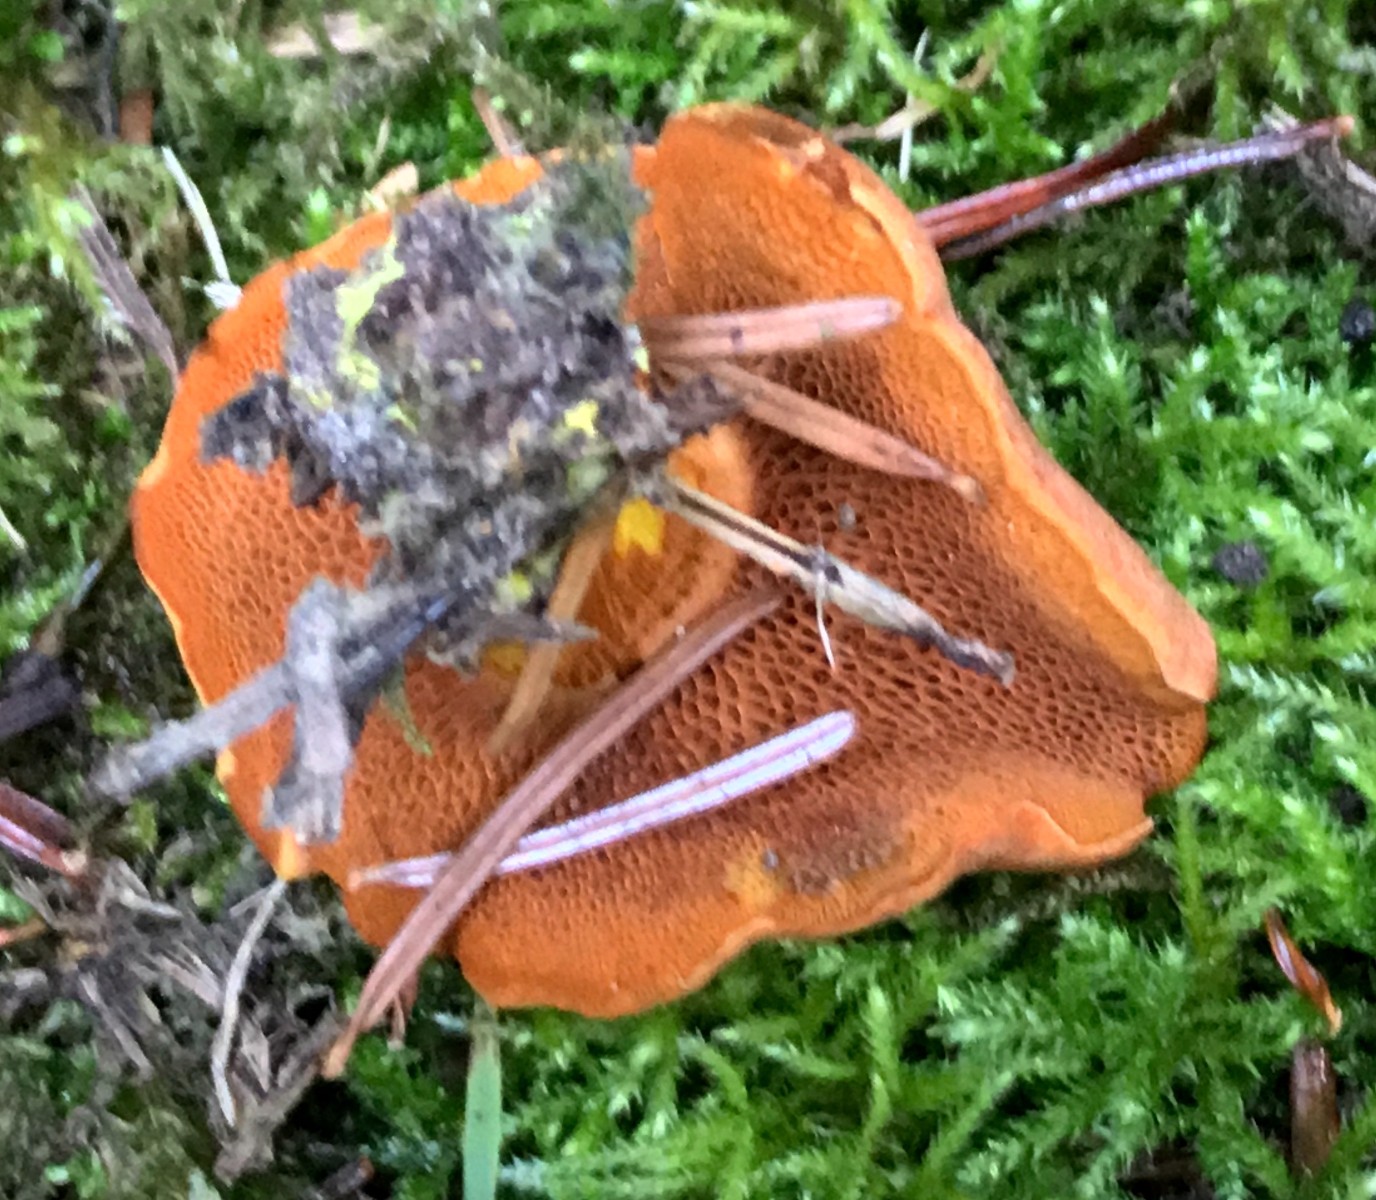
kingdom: Fungi
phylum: Basidiomycota
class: Agaricomycetes
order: Boletales
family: Boletaceae
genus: Chalciporus
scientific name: Chalciporus piperatus
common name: peberrørhat
